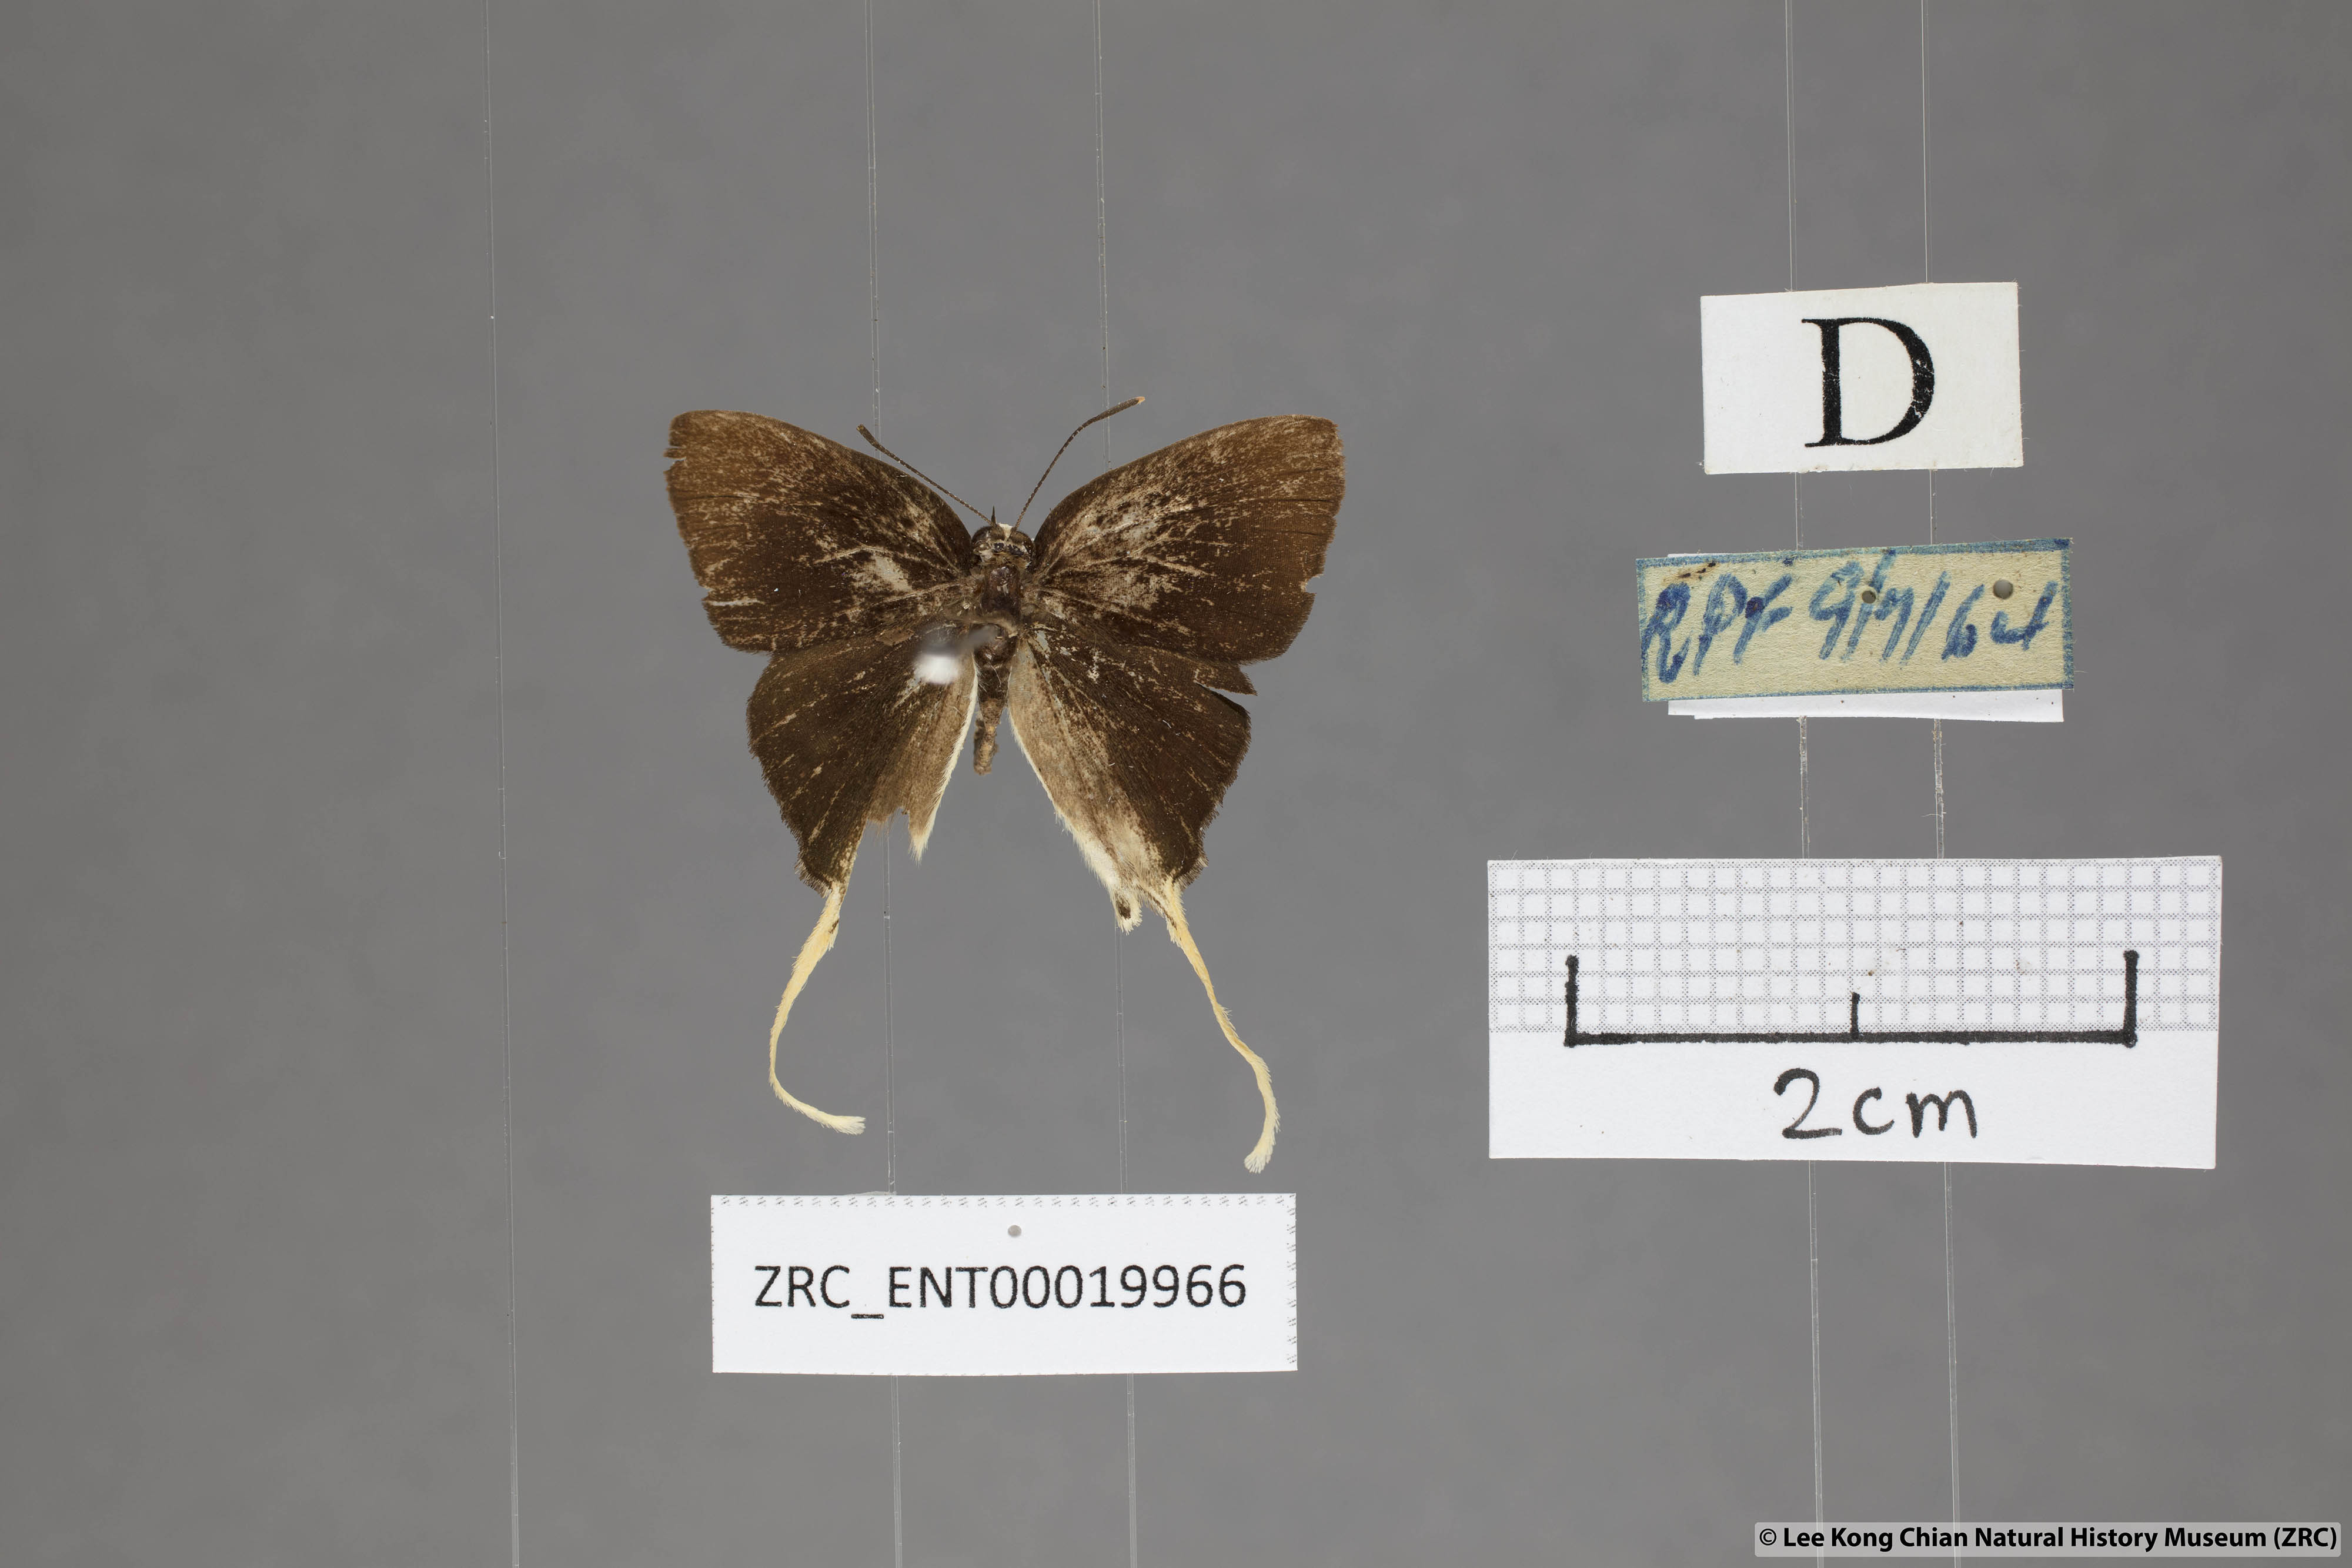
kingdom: Animalia
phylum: Arthropoda
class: Insecta
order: Lepidoptera
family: Lycaenidae
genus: Bindahara
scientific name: Bindahara phocides
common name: Sword-tailed flash
